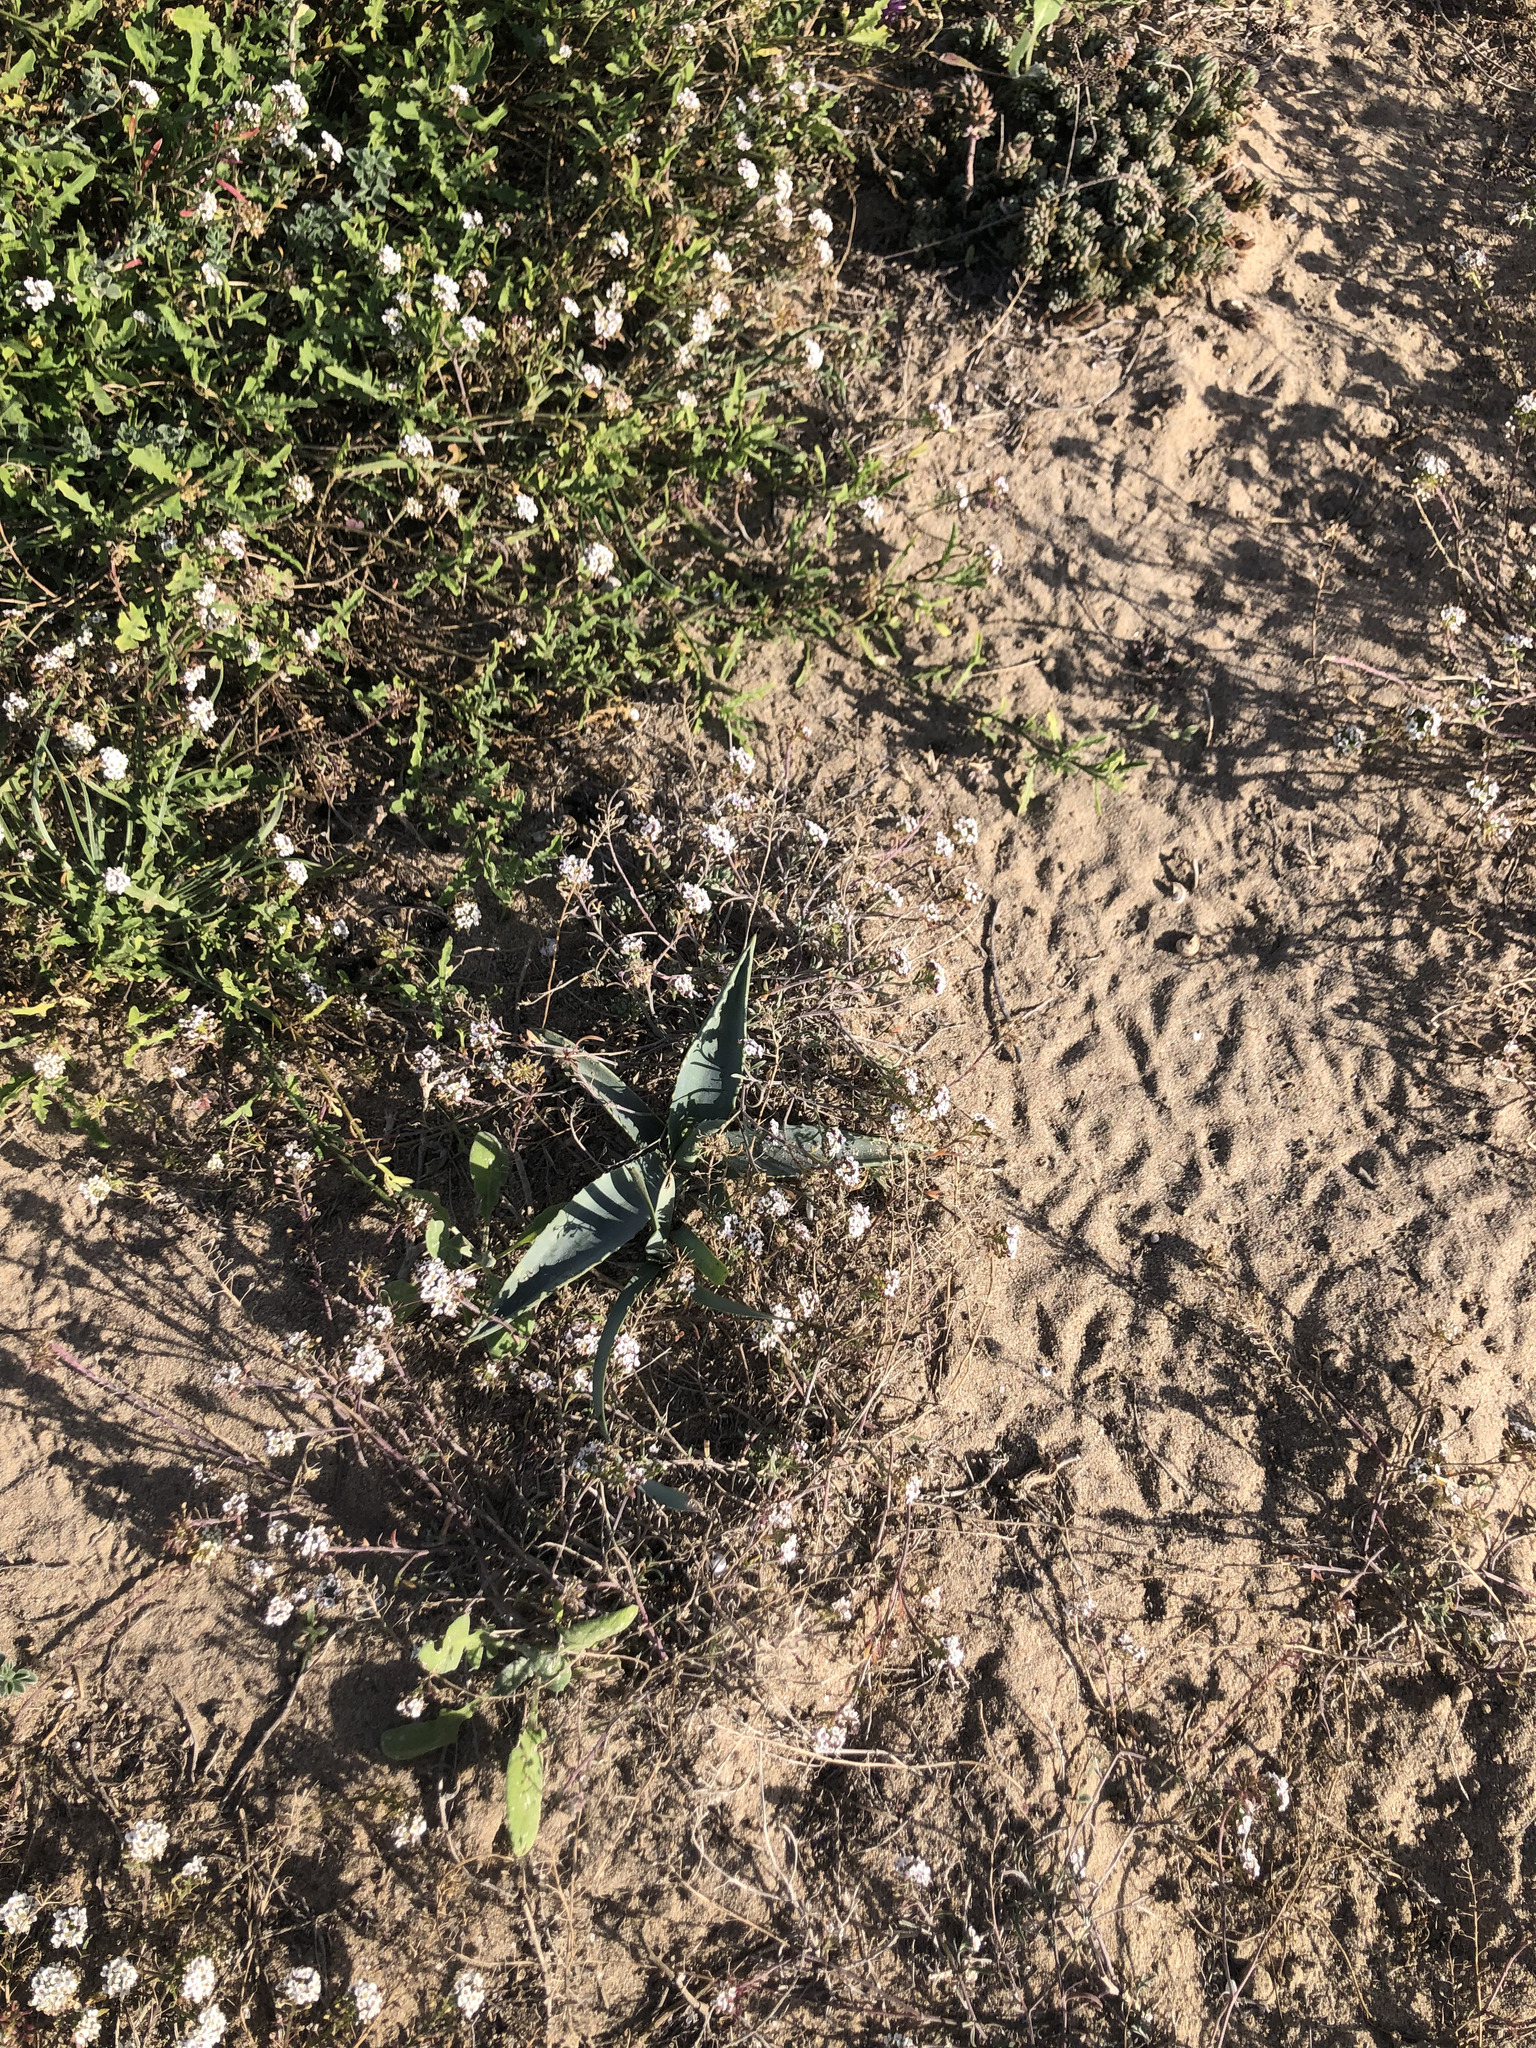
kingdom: Plantae
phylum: Tracheophyta
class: Liliopsida
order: Asparagales
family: Asparagaceae
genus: Agave
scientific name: Agave americana
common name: Centuryplant
